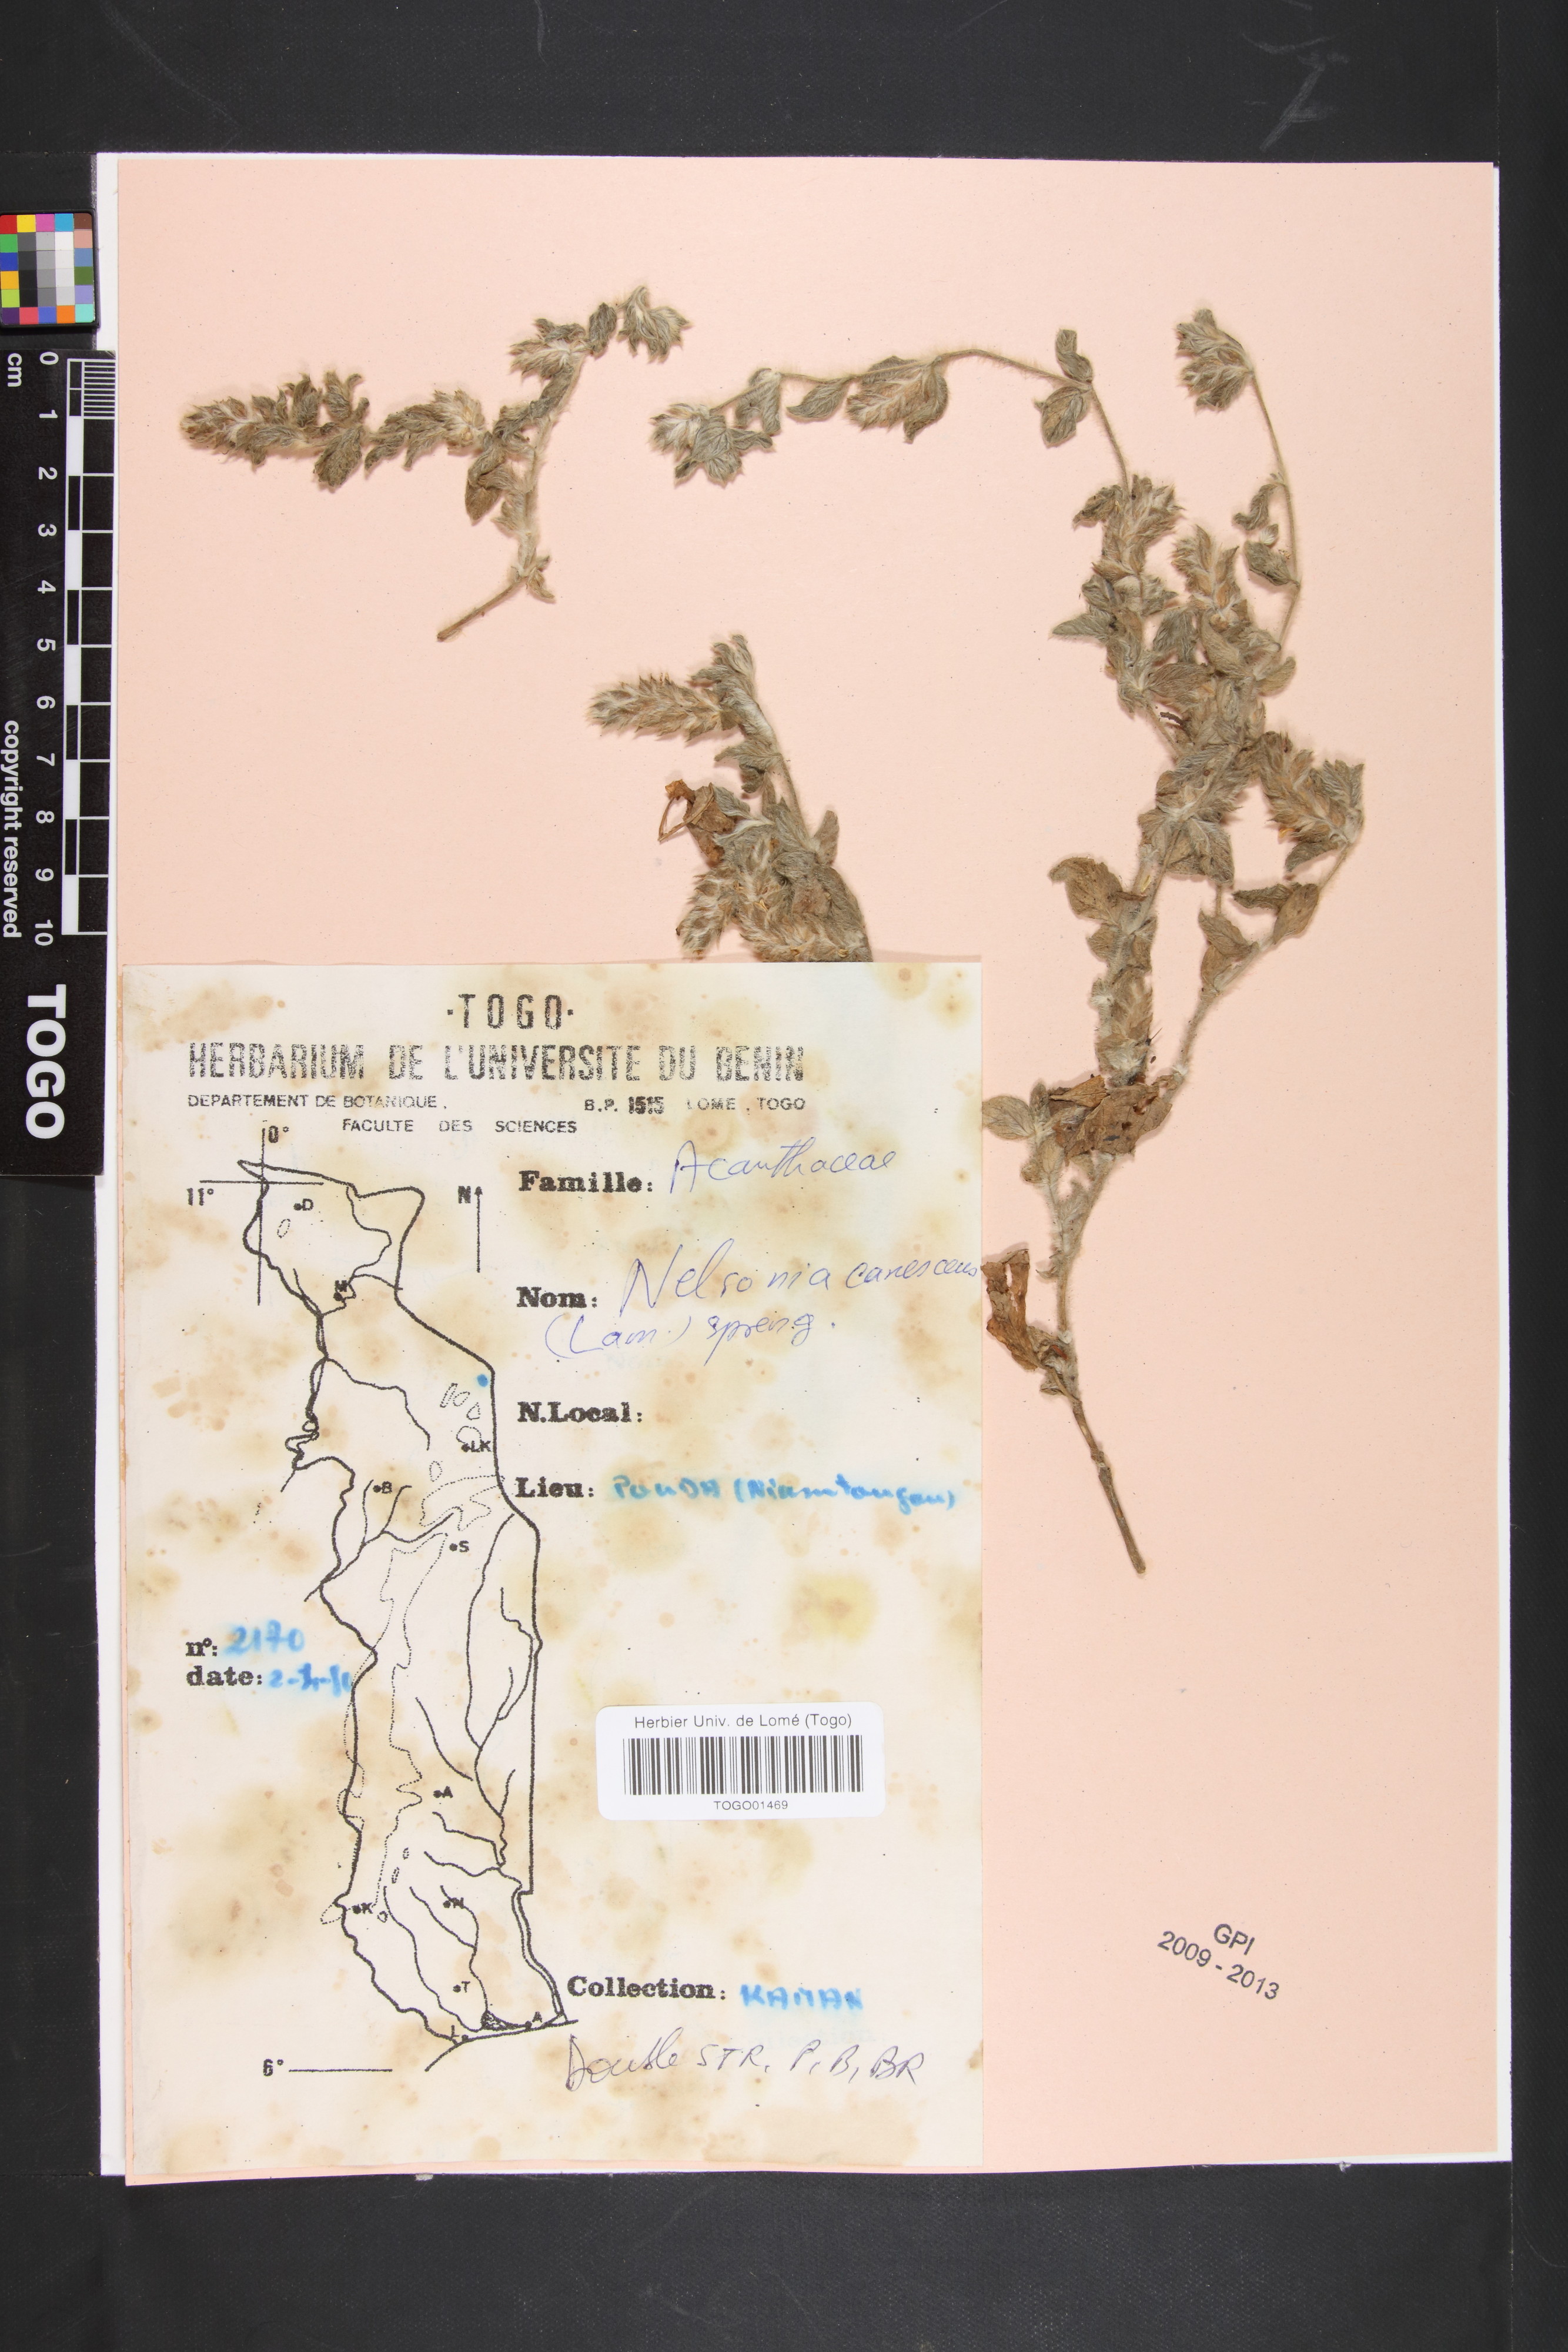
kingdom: Plantae
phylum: Tracheophyta
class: Magnoliopsida
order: Lamiales
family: Acanthaceae
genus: Nelsonia
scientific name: Nelsonia canescens
